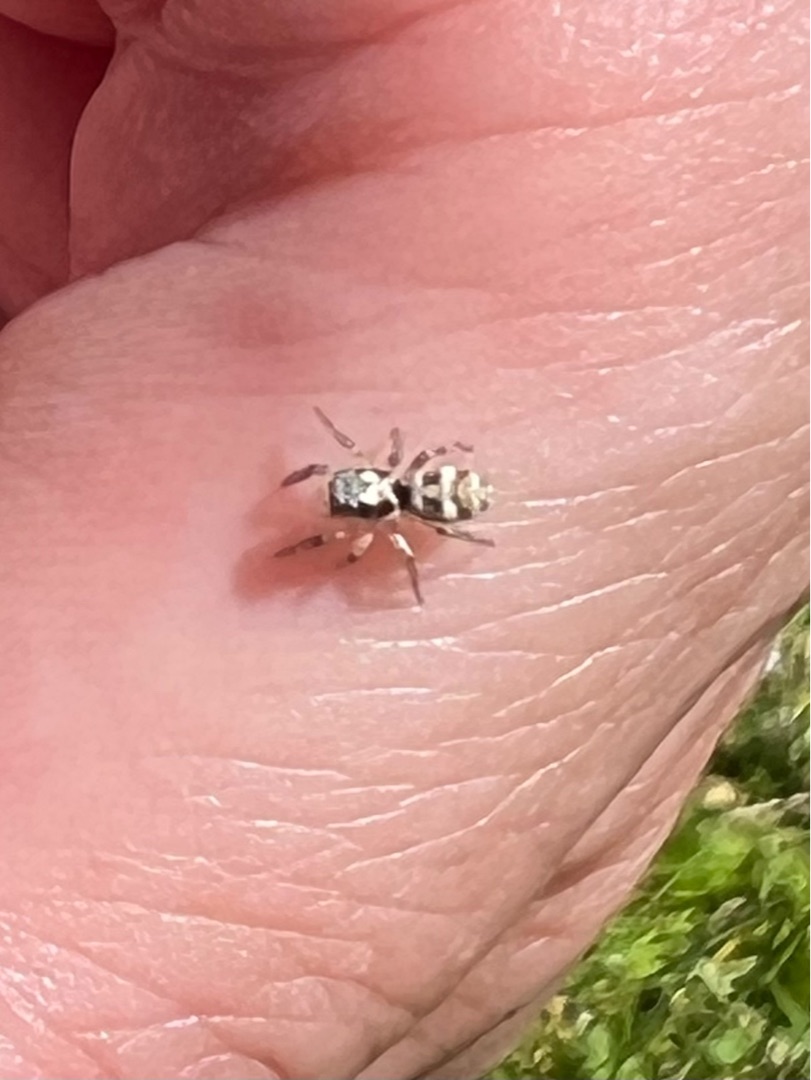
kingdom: Animalia
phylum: Arthropoda
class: Arachnida
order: Araneae
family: Salticidae
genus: Salticus
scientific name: Salticus scenicus
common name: Almindelig zebraedderkop
